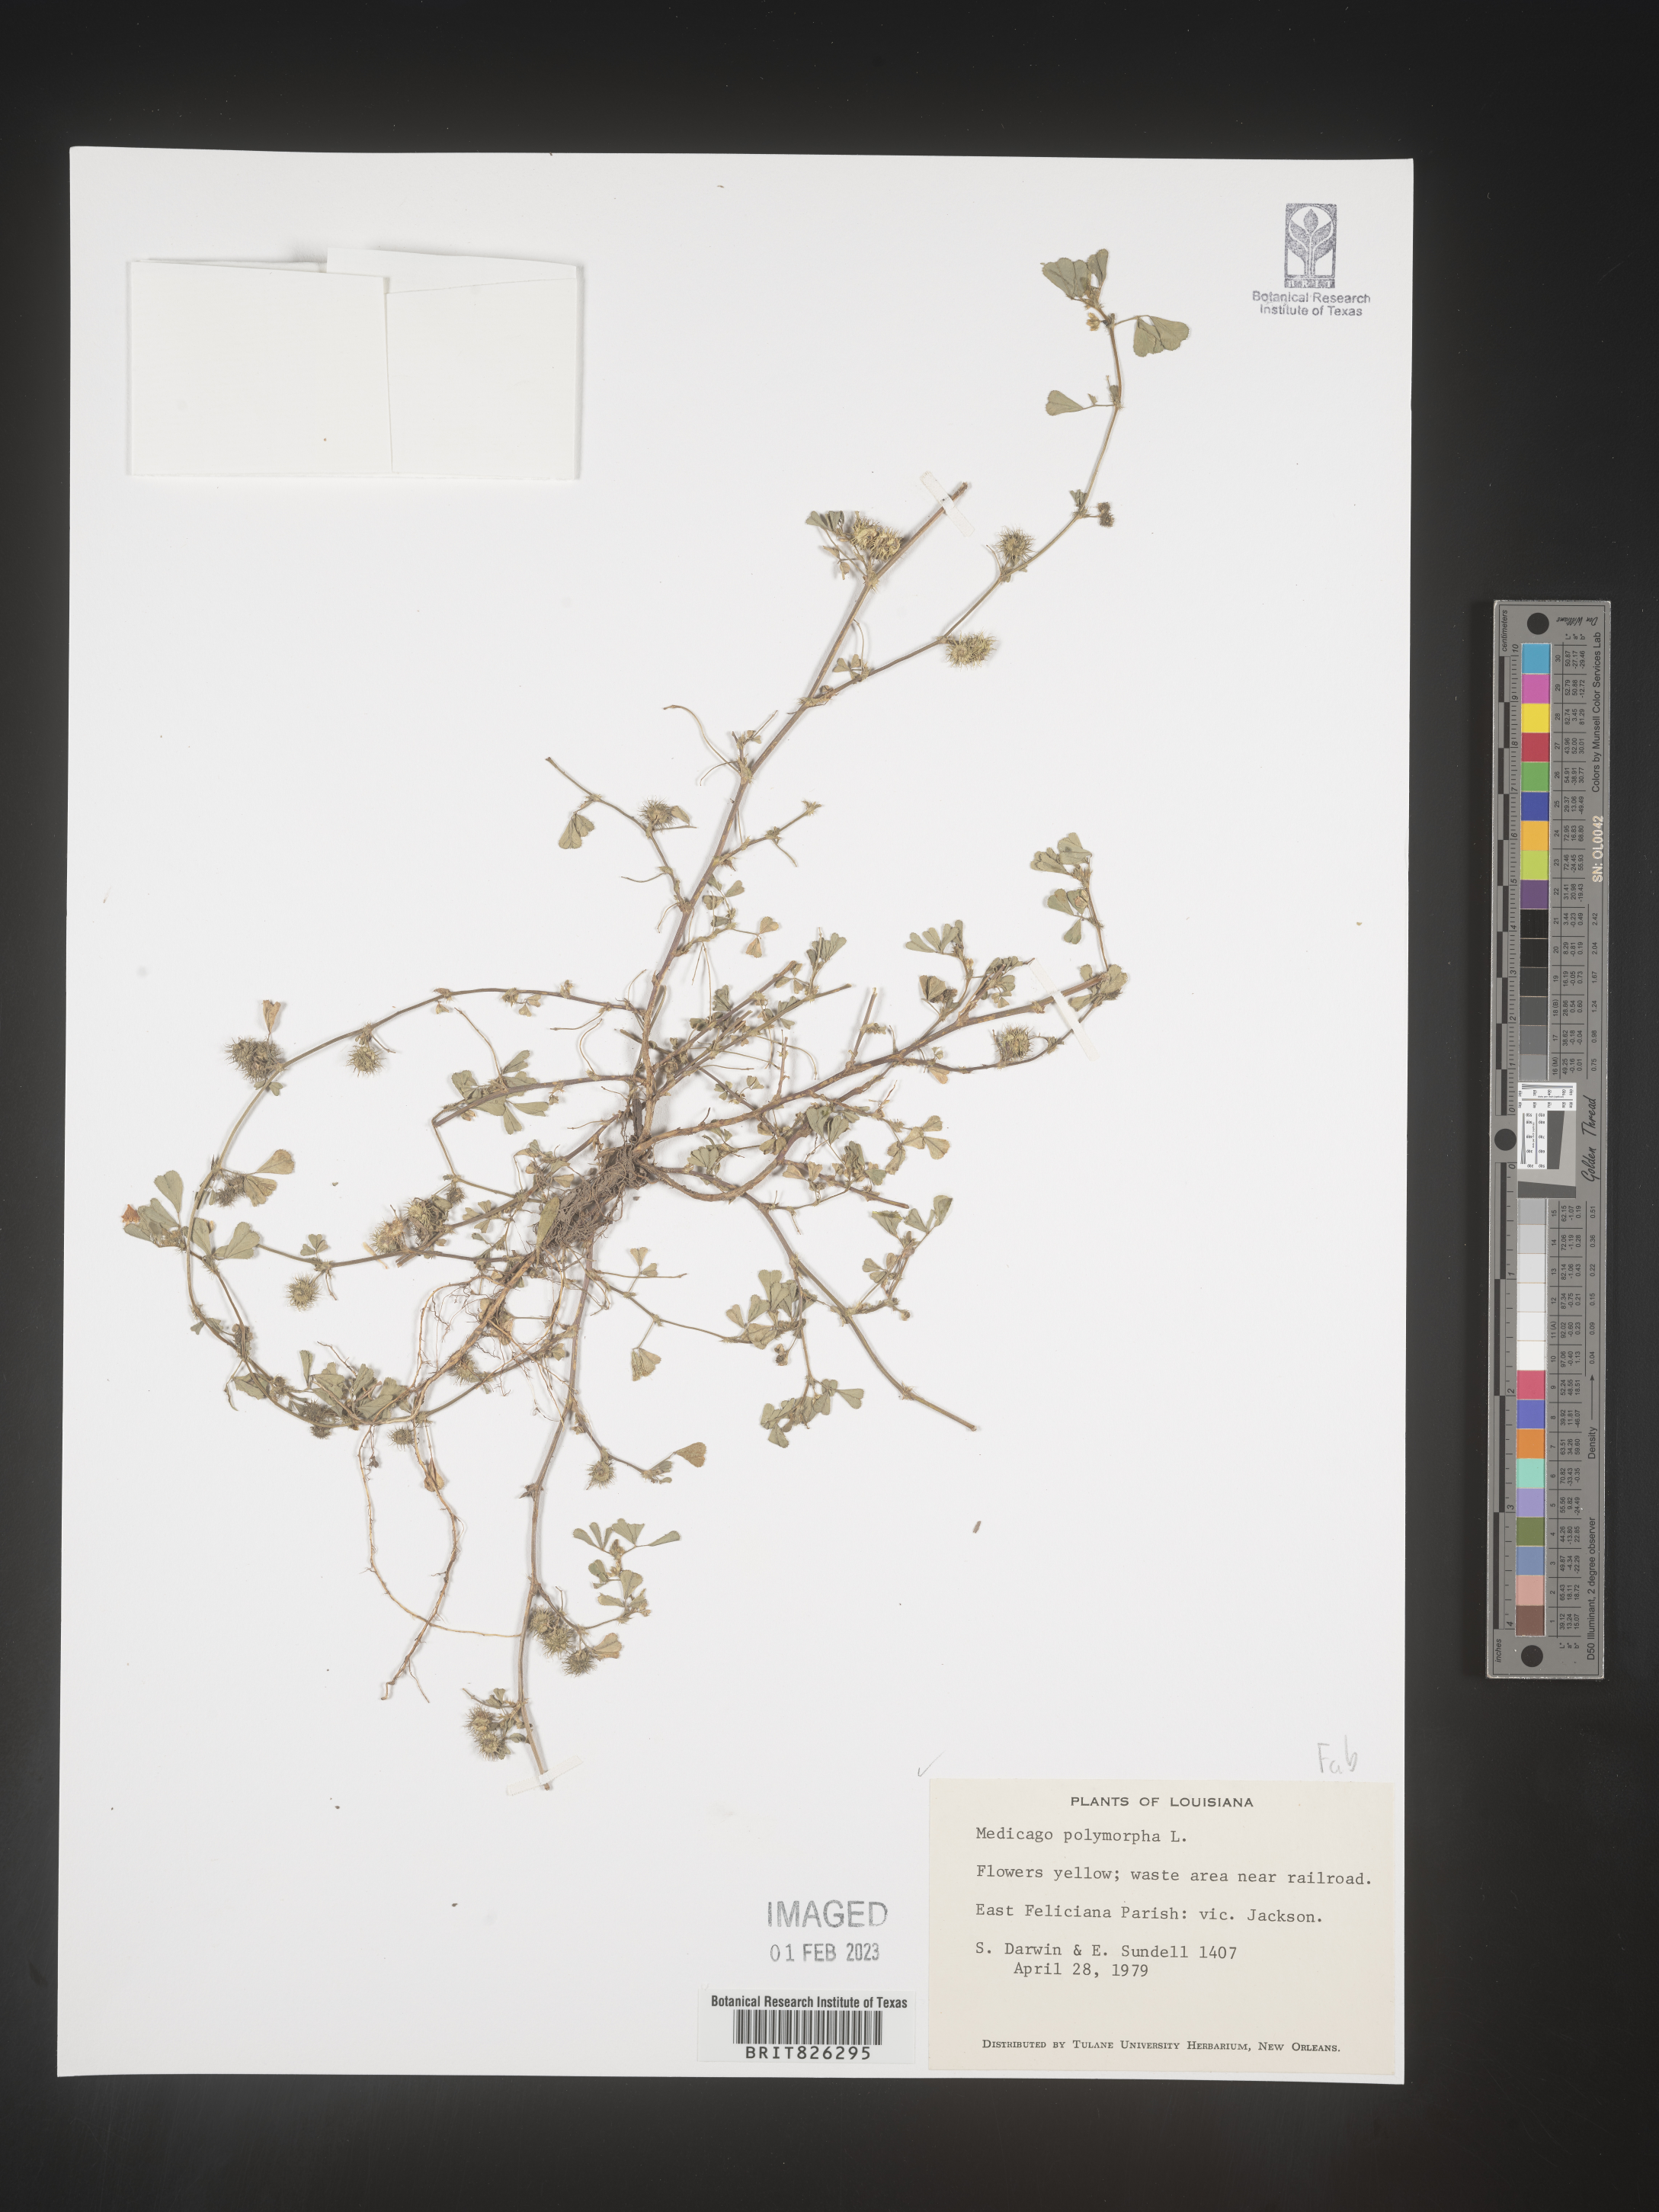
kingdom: Plantae
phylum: Tracheophyta
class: Magnoliopsida
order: Fabales
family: Fabaceae
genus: Medicago
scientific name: Medicago polymorpha
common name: Burclover
